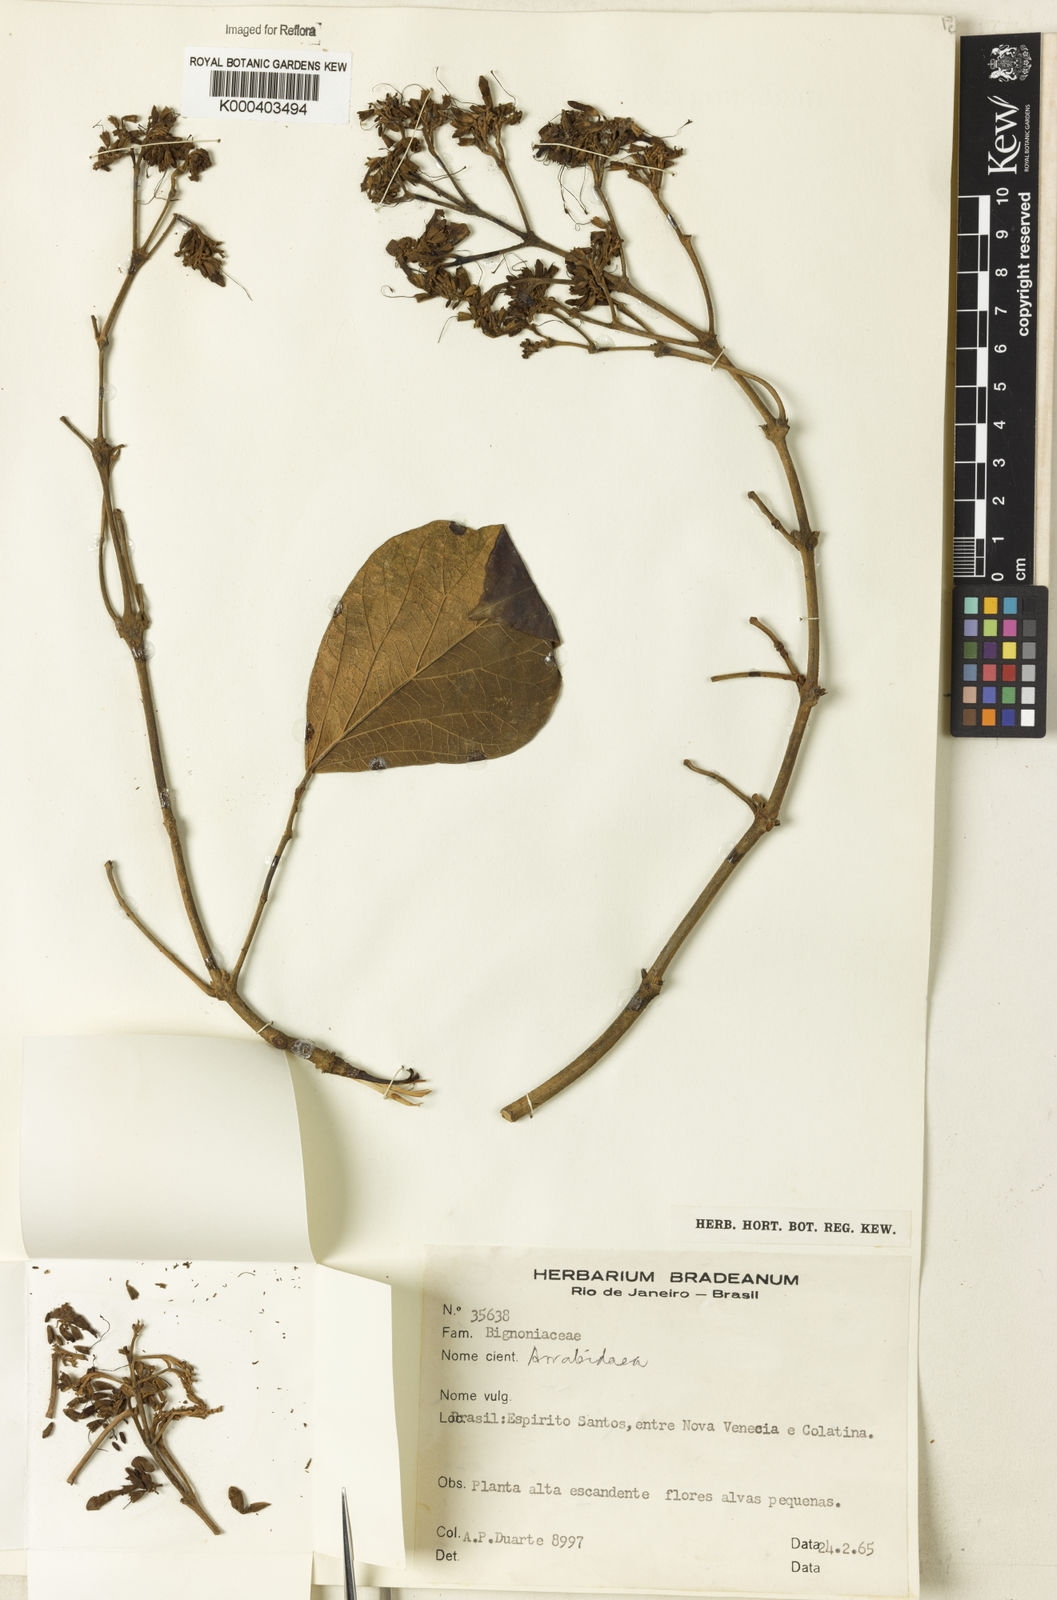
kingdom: Plantae
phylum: Tracheophyta
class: Magnoliopsida
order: Rosales
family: Rhamnaceae
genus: Arrabidaea
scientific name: Arrabidaea
